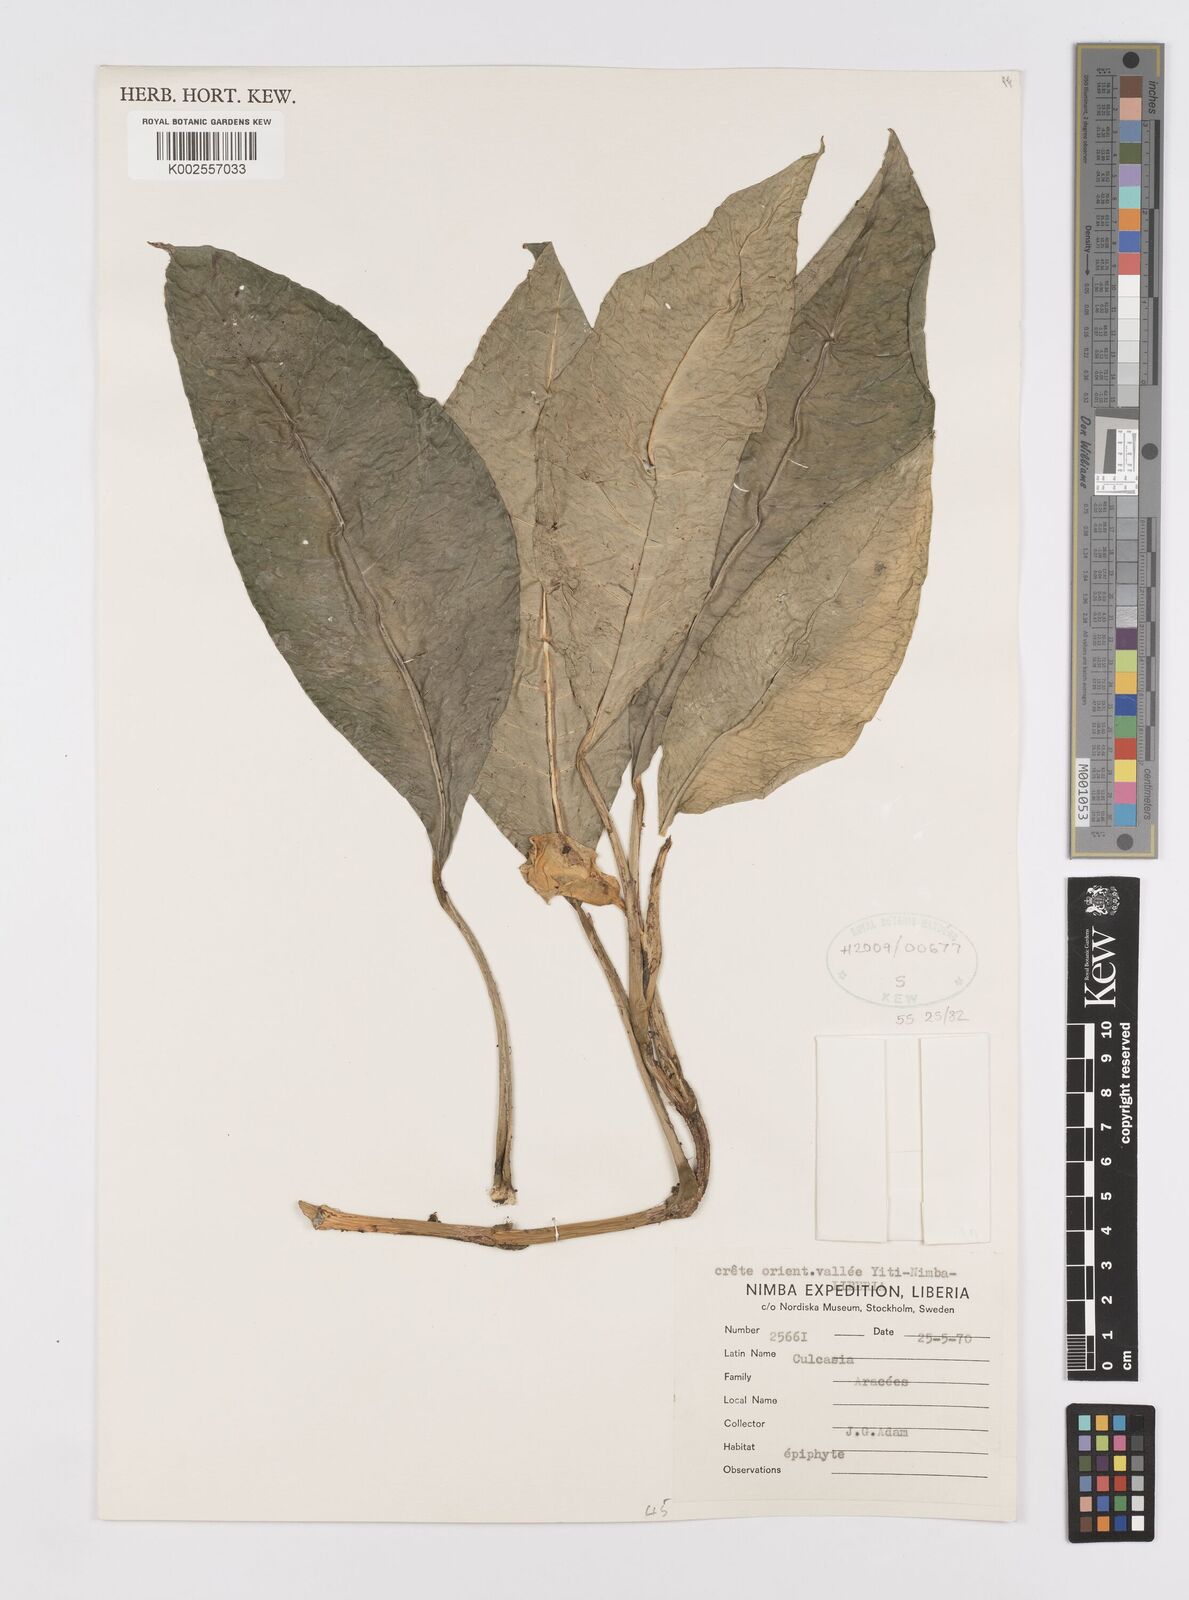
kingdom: Plantae
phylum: Tracheophyta
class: Liliopsida
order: Alismatales
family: Araceae
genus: Culcasia
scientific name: Culcasia
